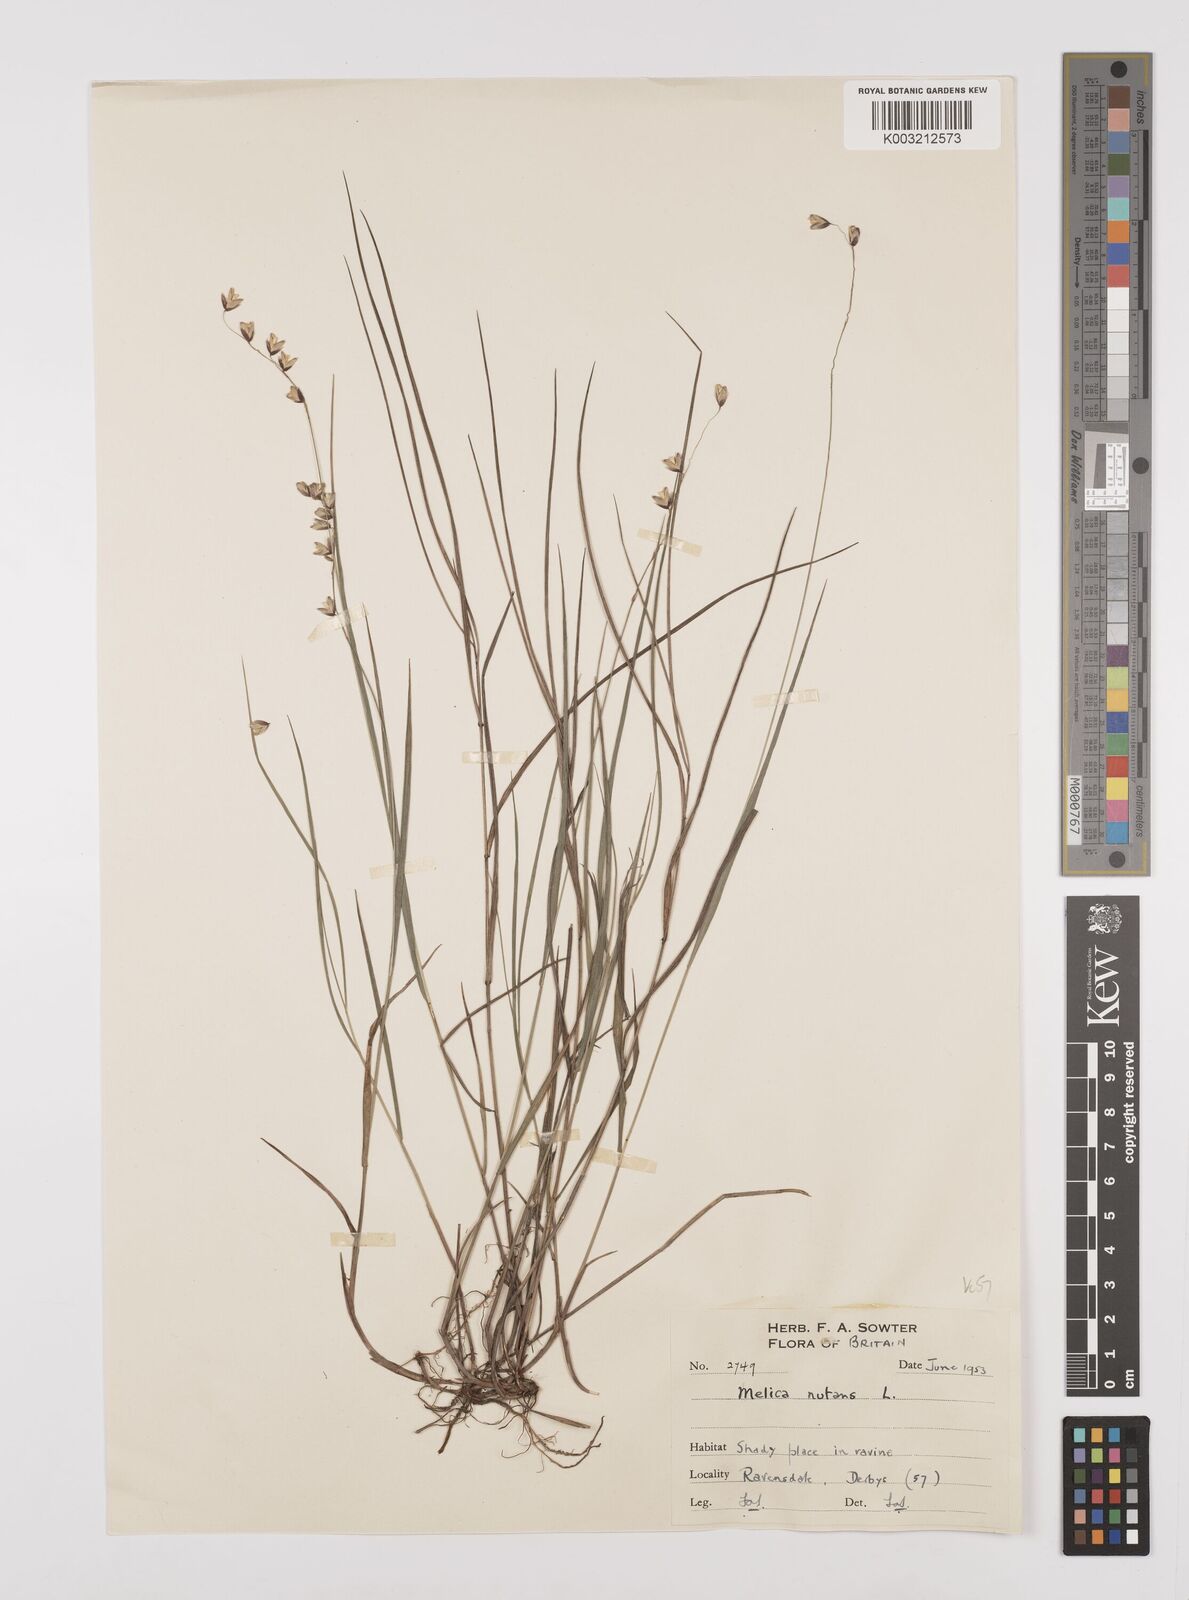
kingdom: Plantae
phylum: Tracheophyta
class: Liliopsida
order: Poales
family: Poaceae
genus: Melica
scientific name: Melica
